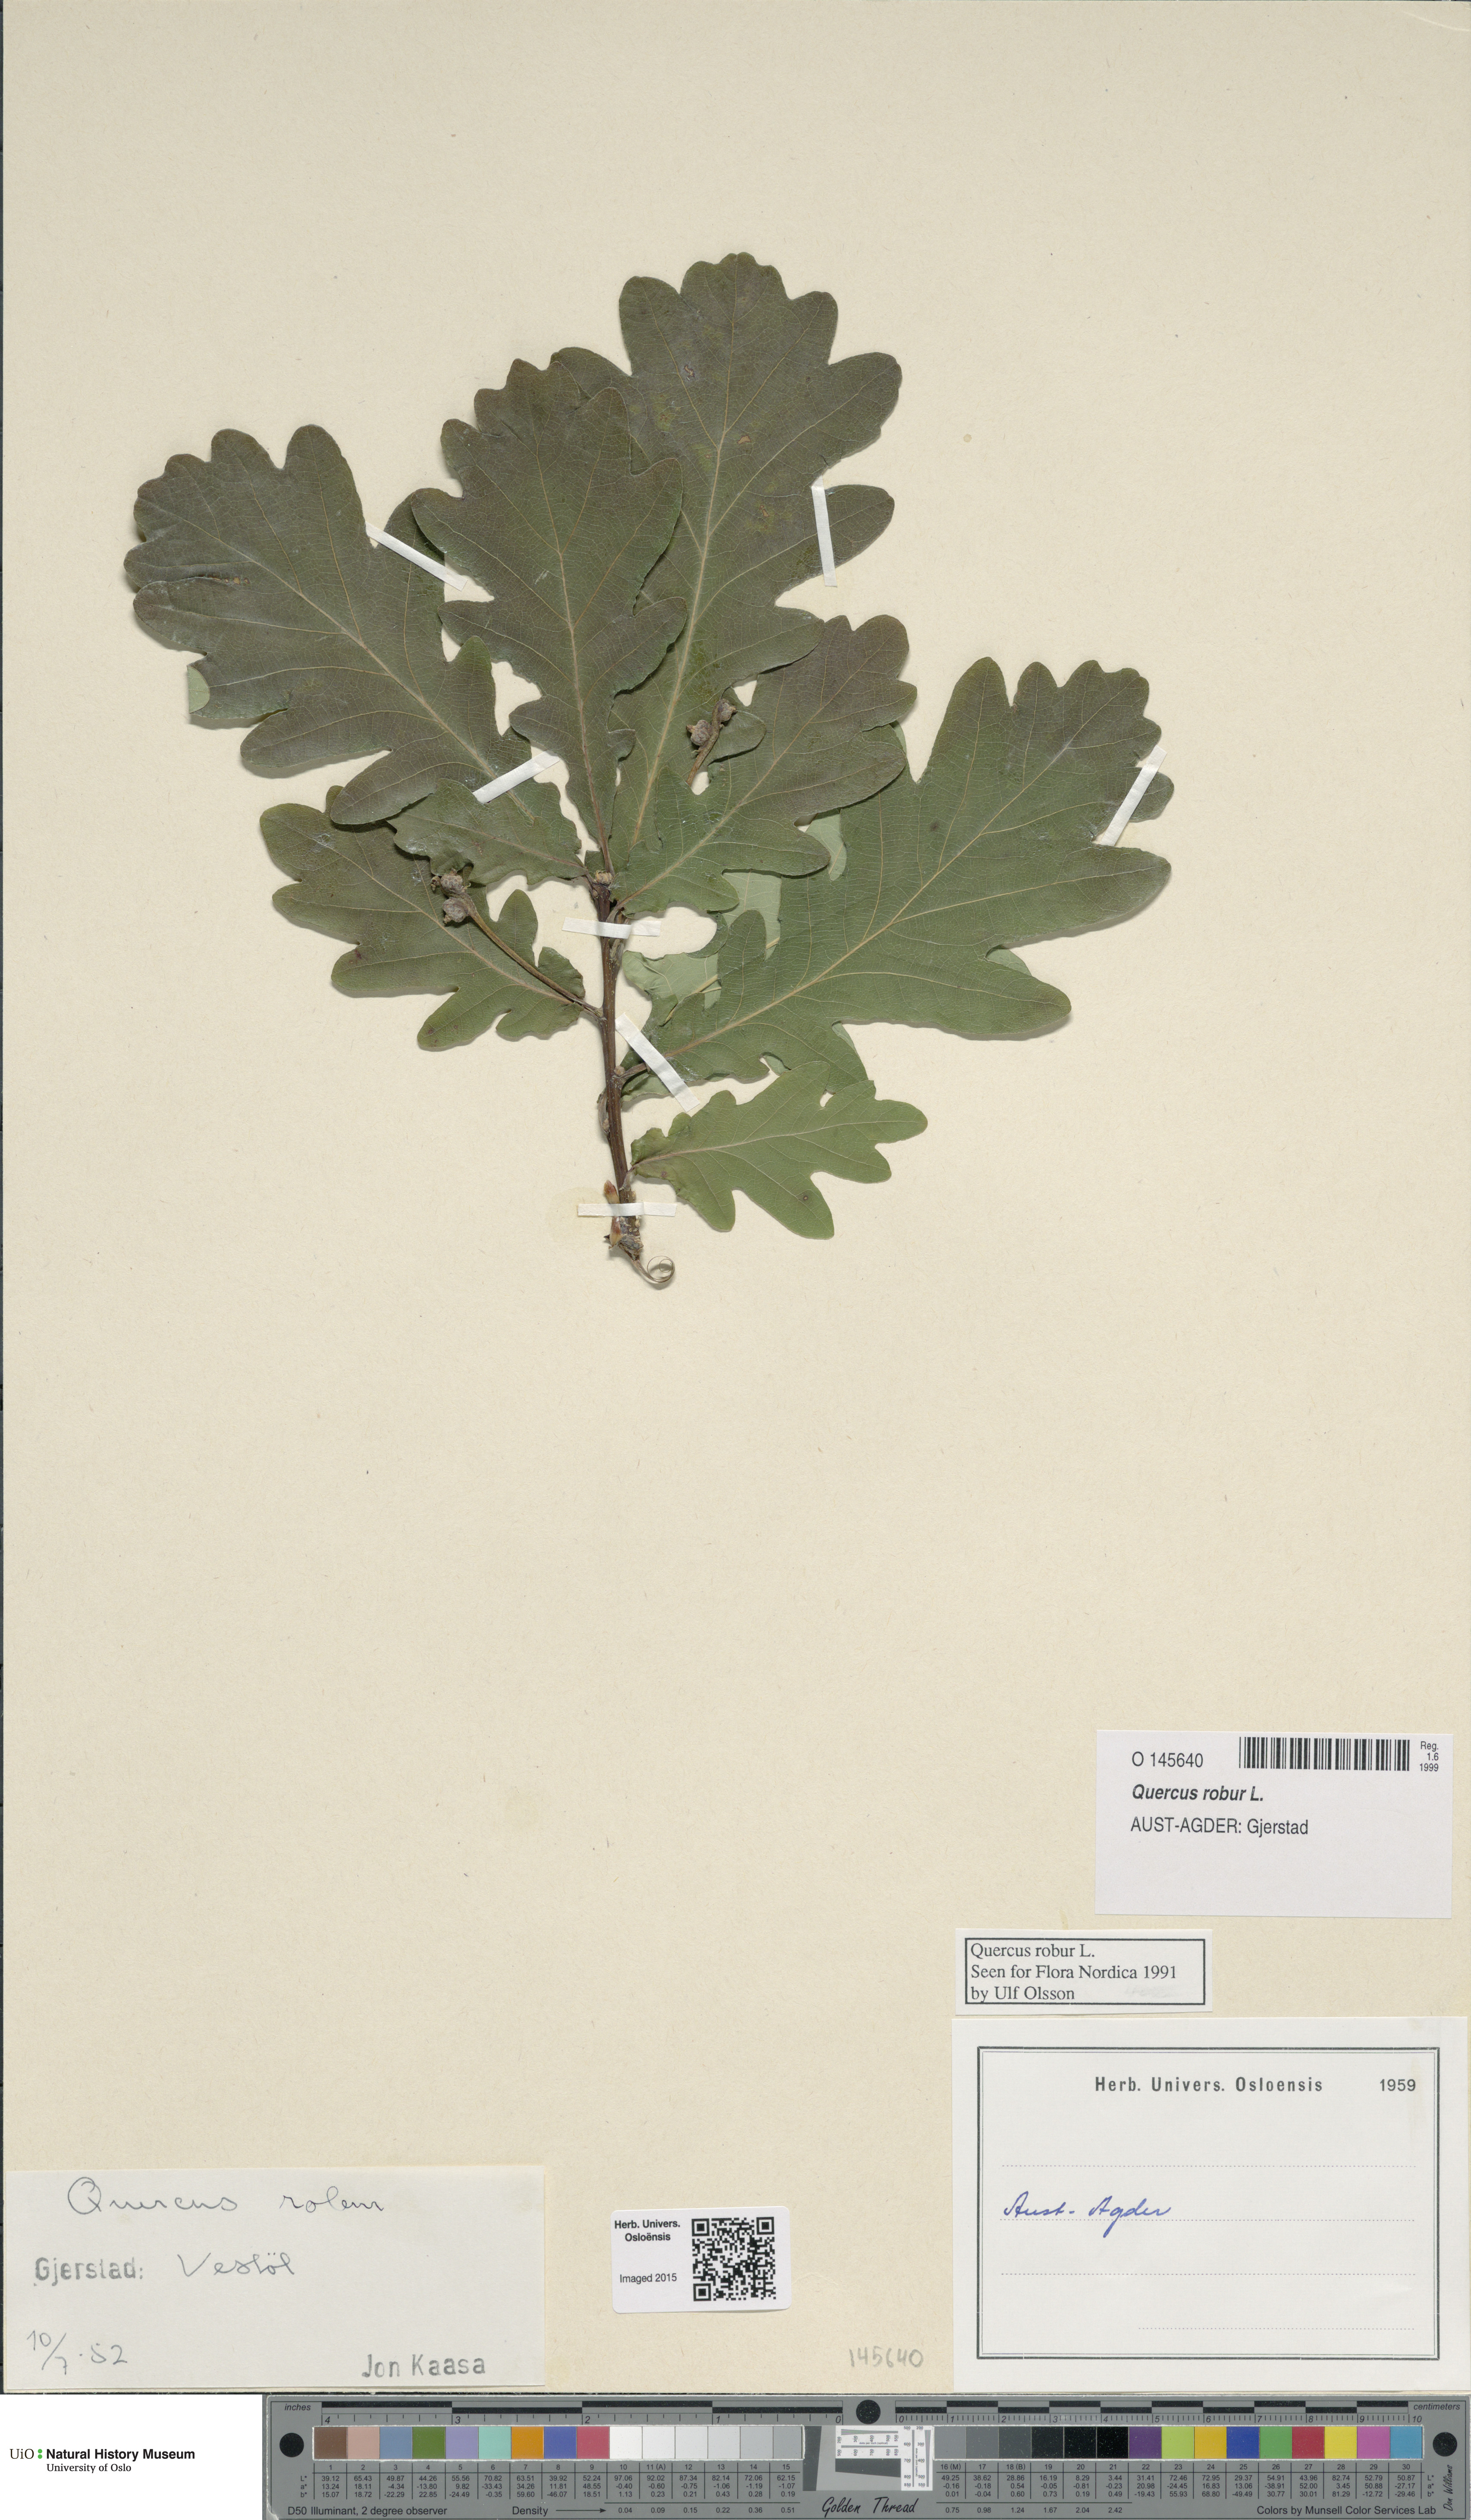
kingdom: Plantae
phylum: Tracheophyta
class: Magnoliopsida
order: Fagales
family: Fagaceae
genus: Quercus
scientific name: Quercus robur
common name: Pedunculate oak
